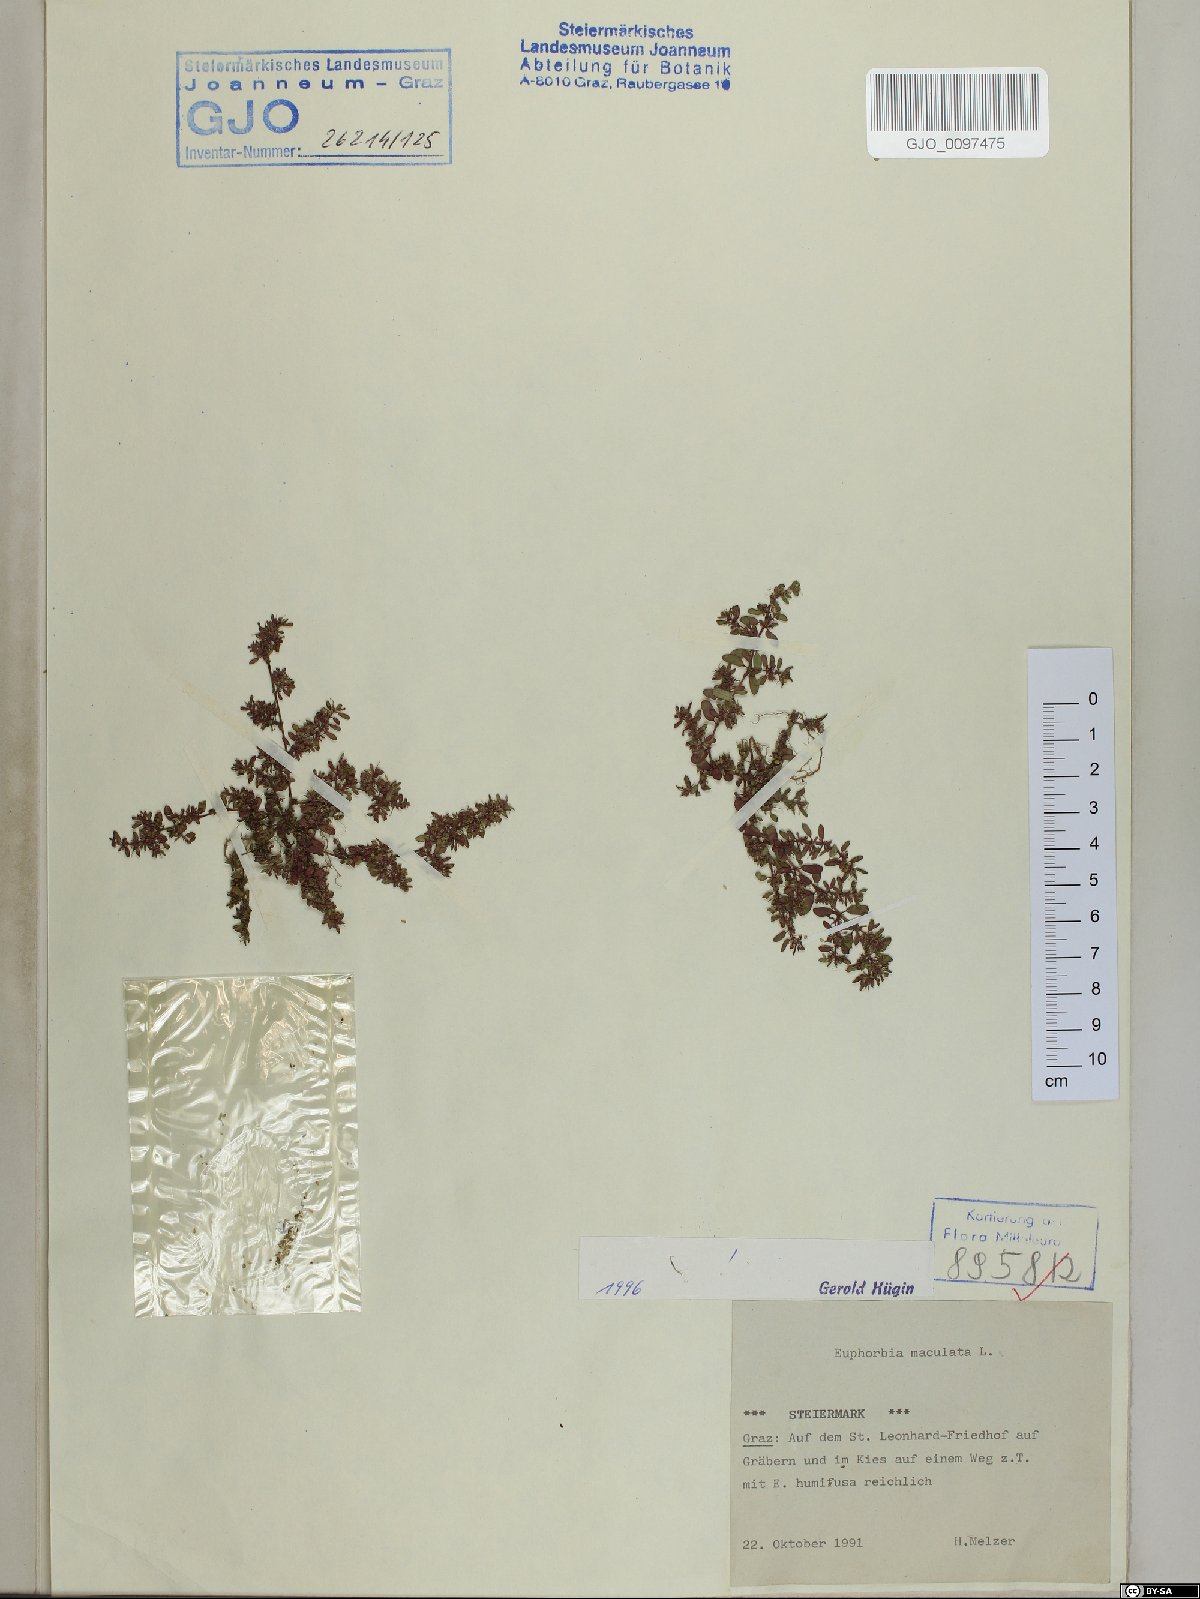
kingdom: Plantae
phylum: Tracheophyta
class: Magnoliopsida
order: Malpighiales
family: Euphorbiaceae
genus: Euphorbia
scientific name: Euphorbia maculata
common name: Spotted spurge
